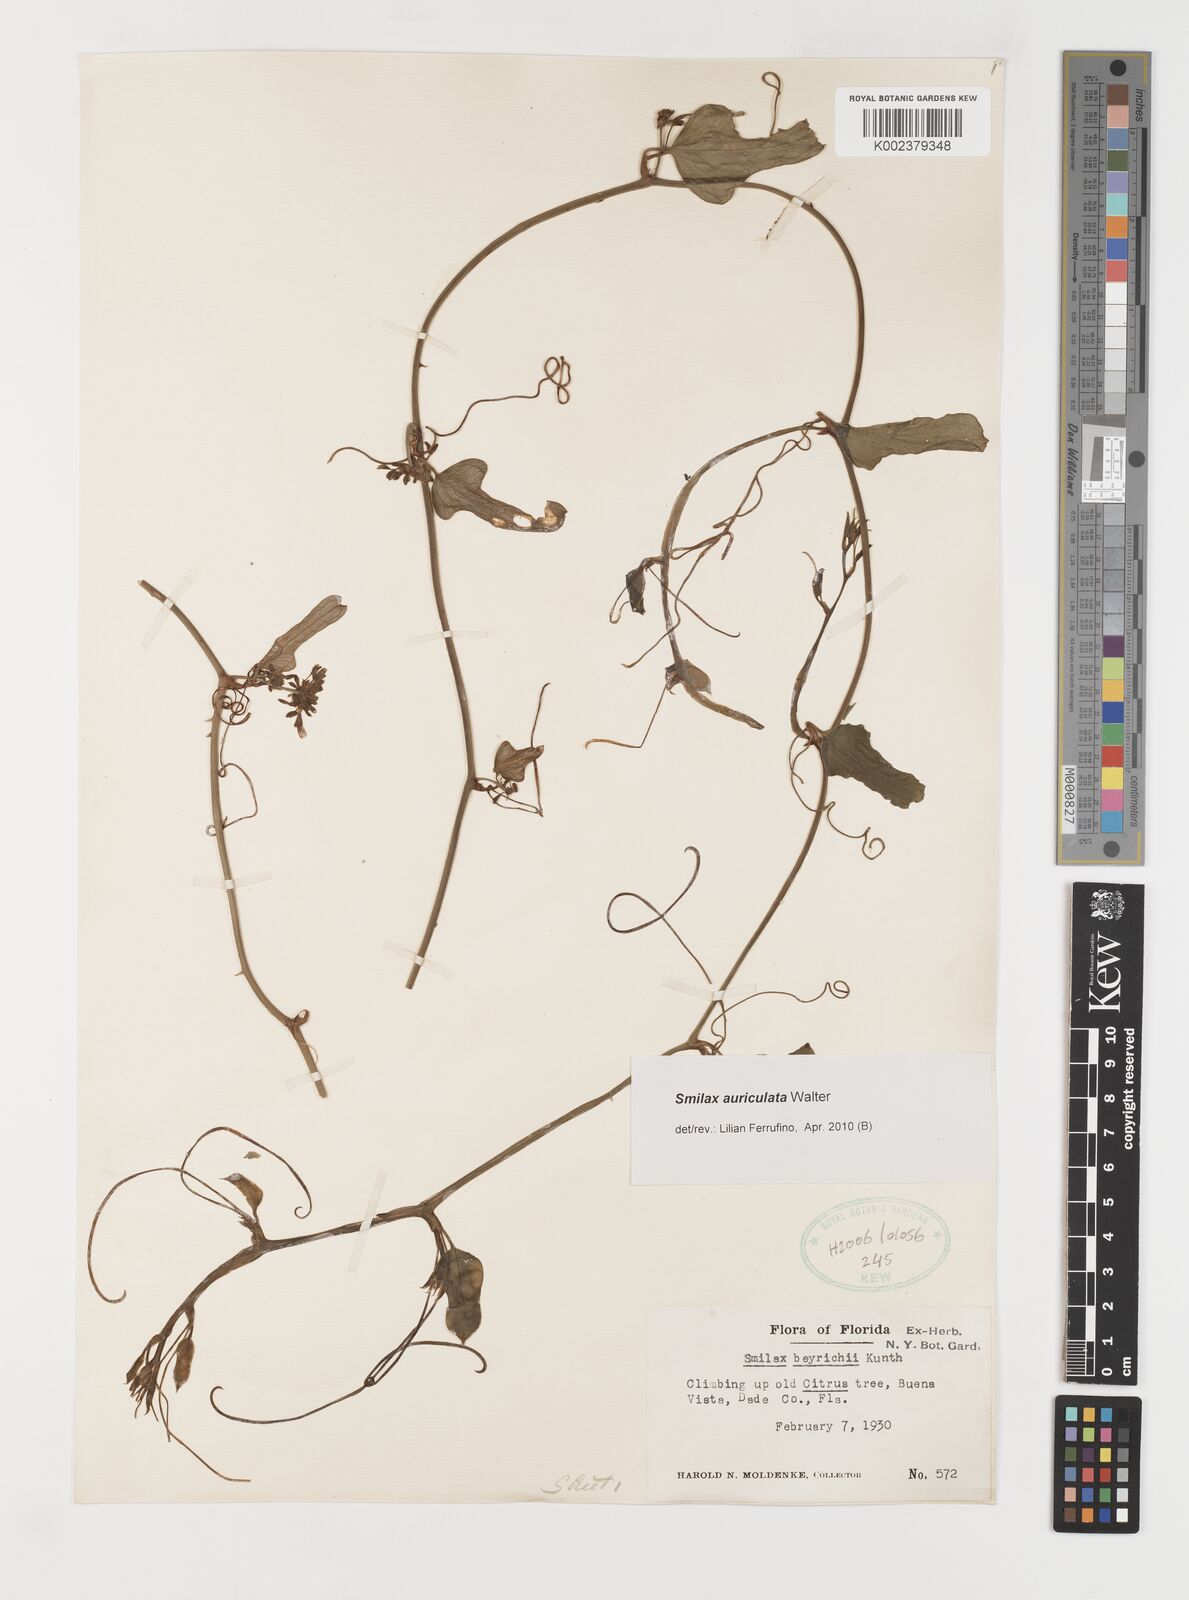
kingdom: Plantae
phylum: Tracheophyta
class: Liliopsida
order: Liliales
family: Smilacaceae
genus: Smilax
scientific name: Smilax auriculata
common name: Wild bamboo
